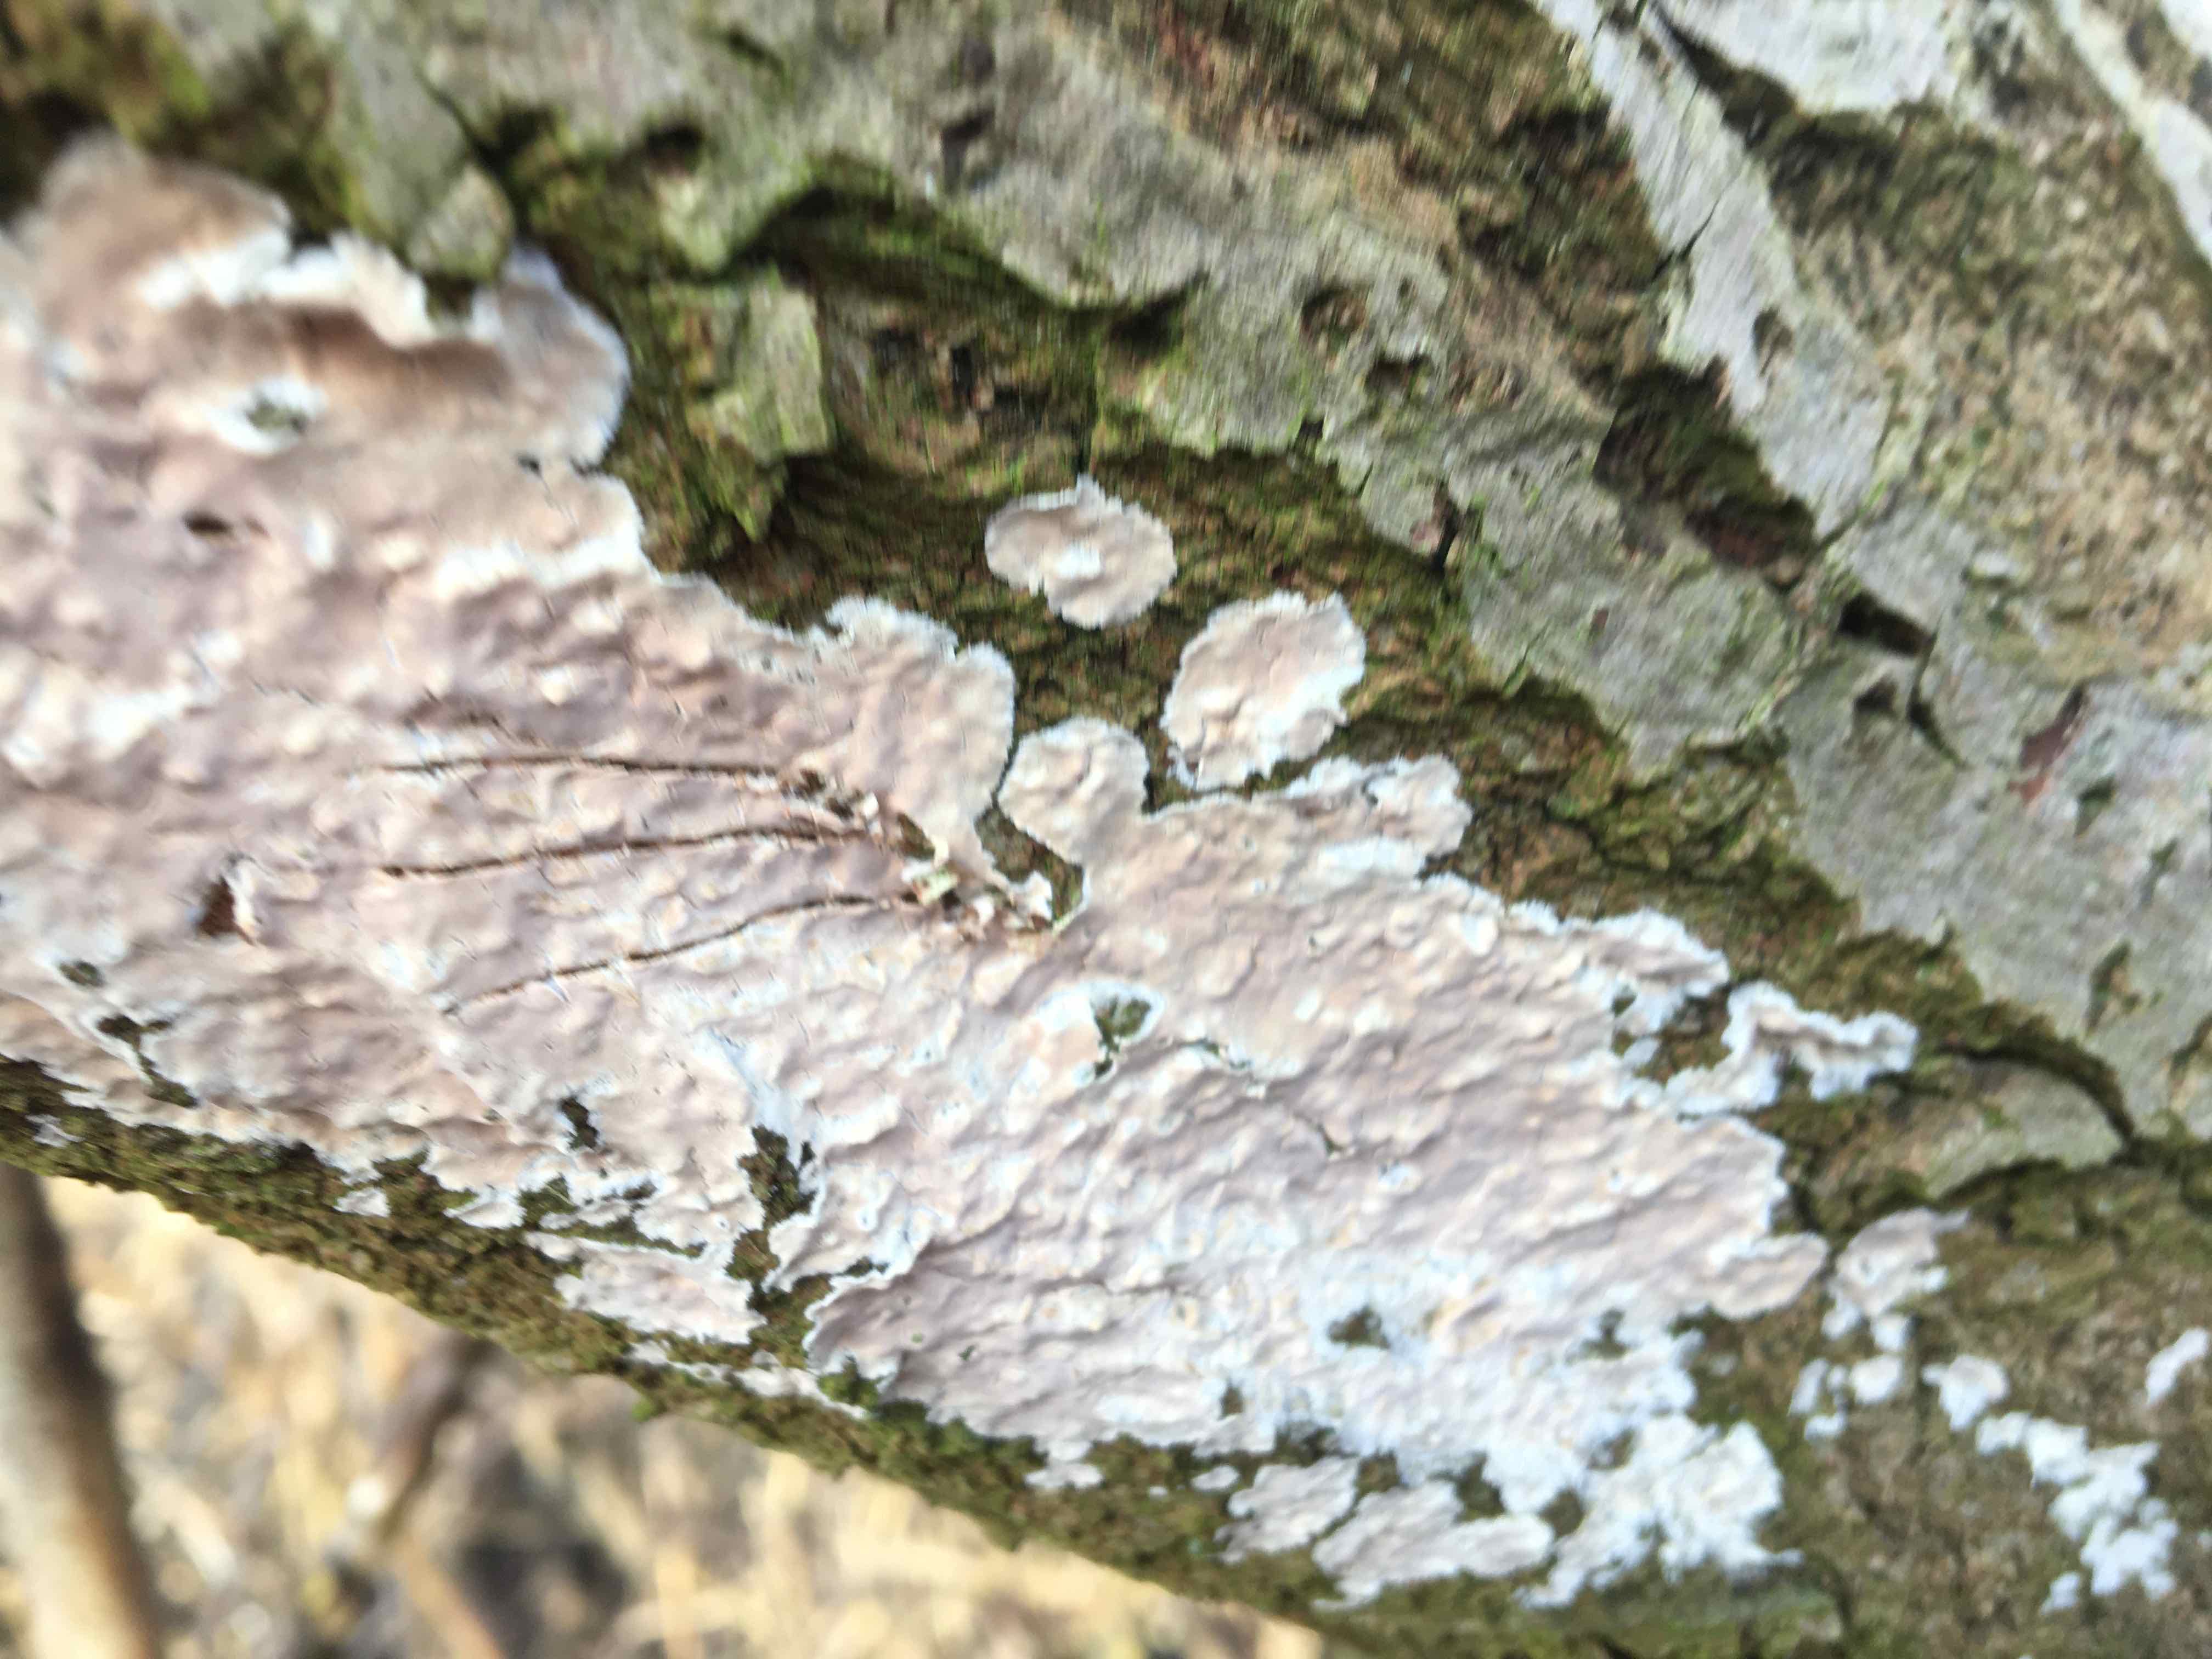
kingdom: Fungi
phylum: Basidiomycota
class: Agaricomycetes
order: Agaricales
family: Physalacriaceae
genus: Cylindrobasidium
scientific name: Cylindrobasidium evolvens
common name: sprækkehinde
